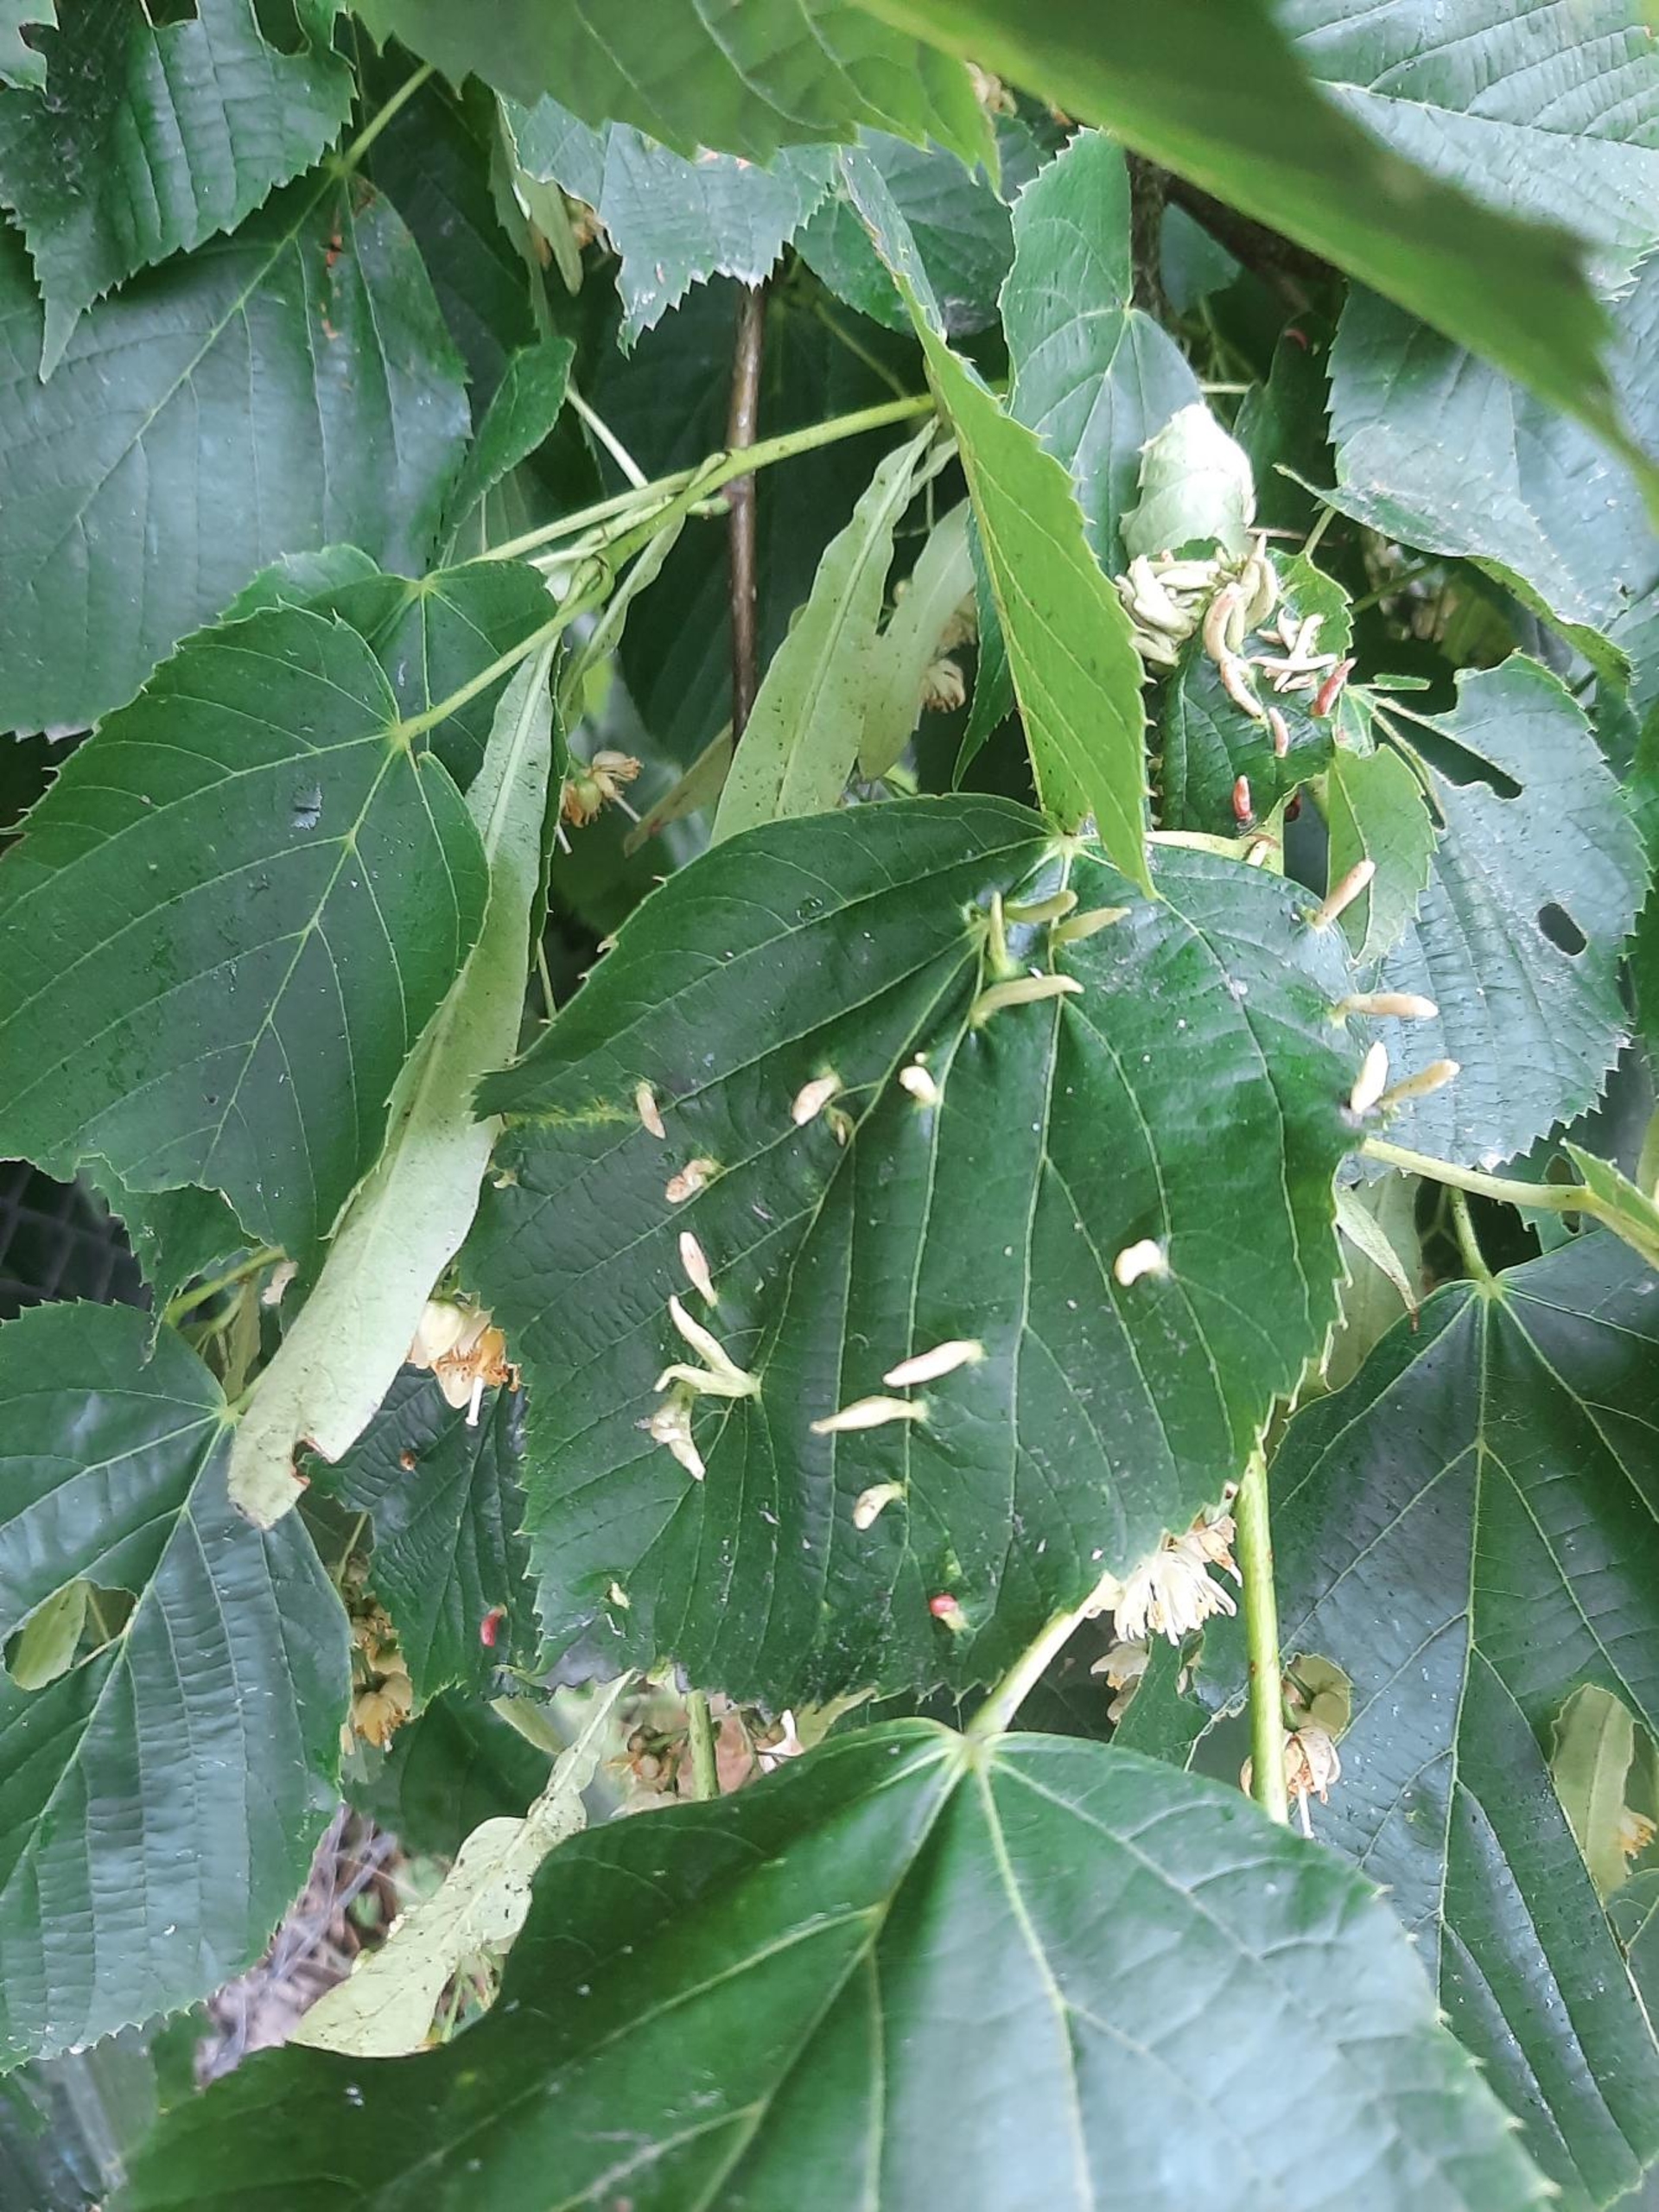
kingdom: Animalia
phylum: Arthropoda
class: Arachnida
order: Trombidiformes
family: Eriophyidae
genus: Eriophyes
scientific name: Eriophyes tiliae
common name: Lindepunggalmide
